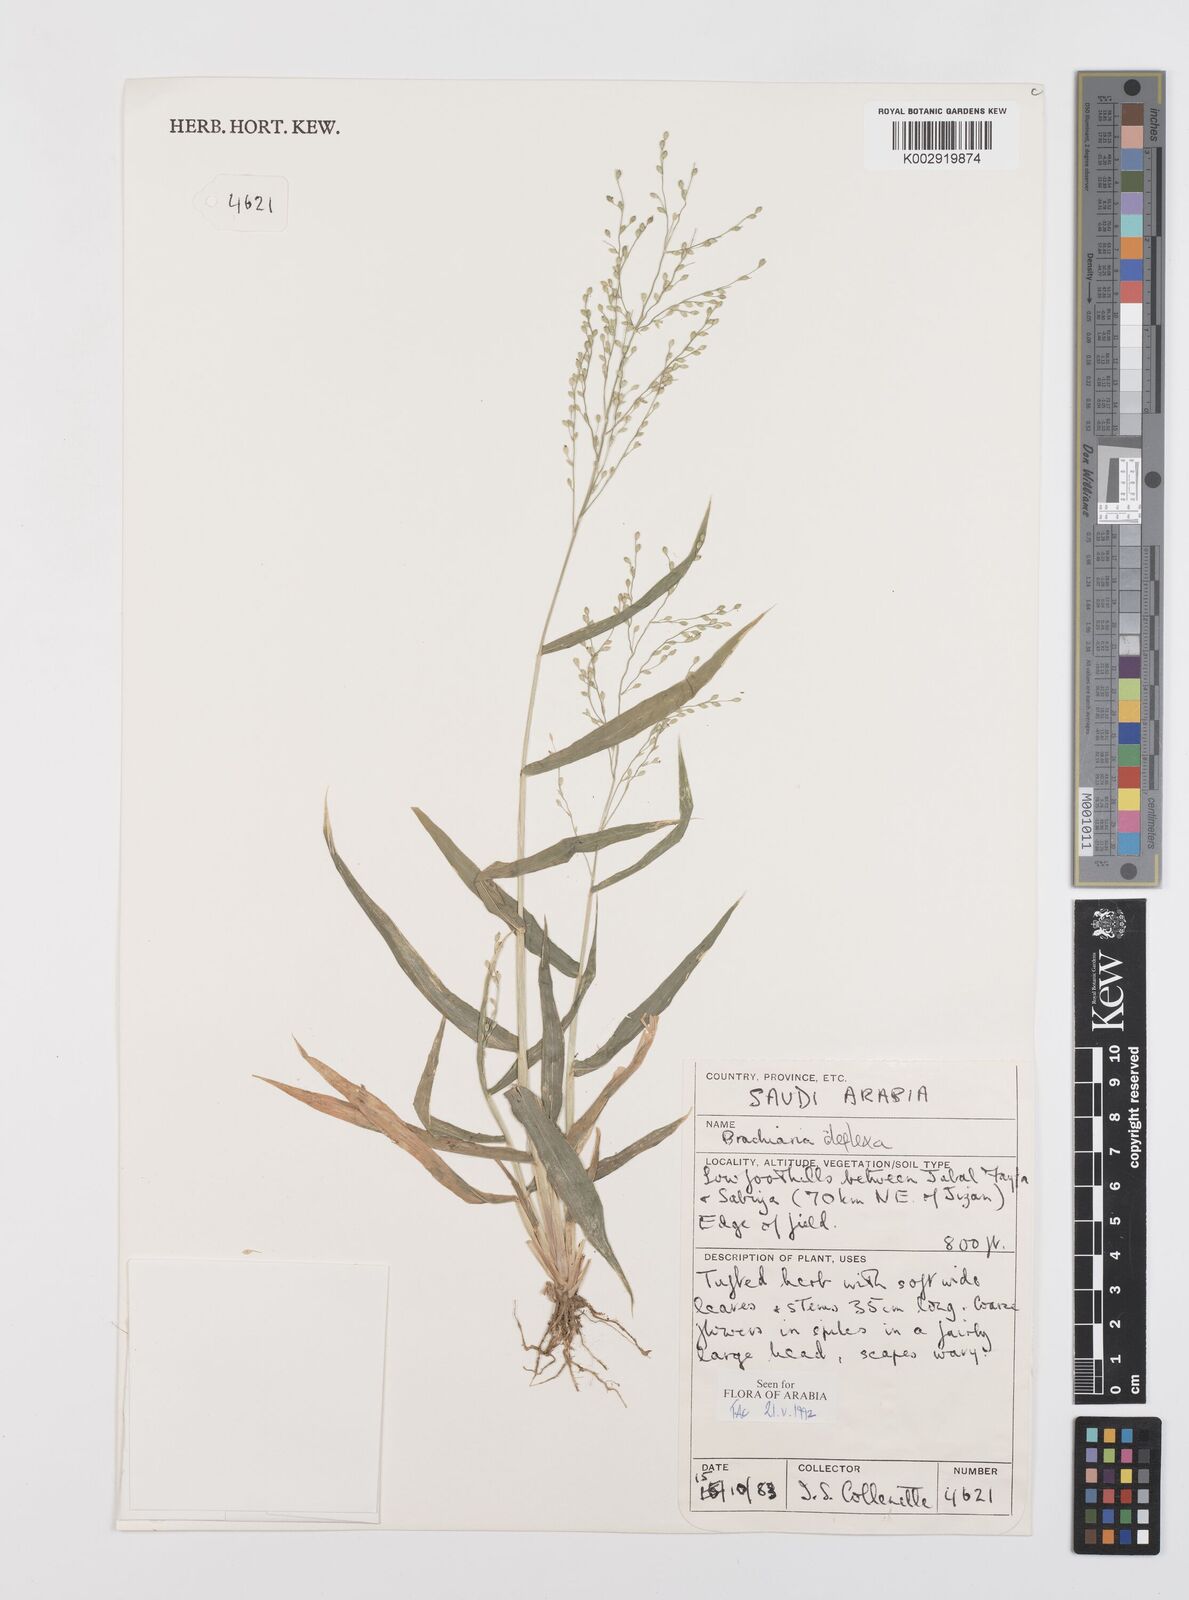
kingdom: Plantae
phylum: Tracheophyta
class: Liliopsida
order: Poales
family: Poaceae
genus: Urochloa
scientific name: Urochloa deflexa
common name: Guinea millet
